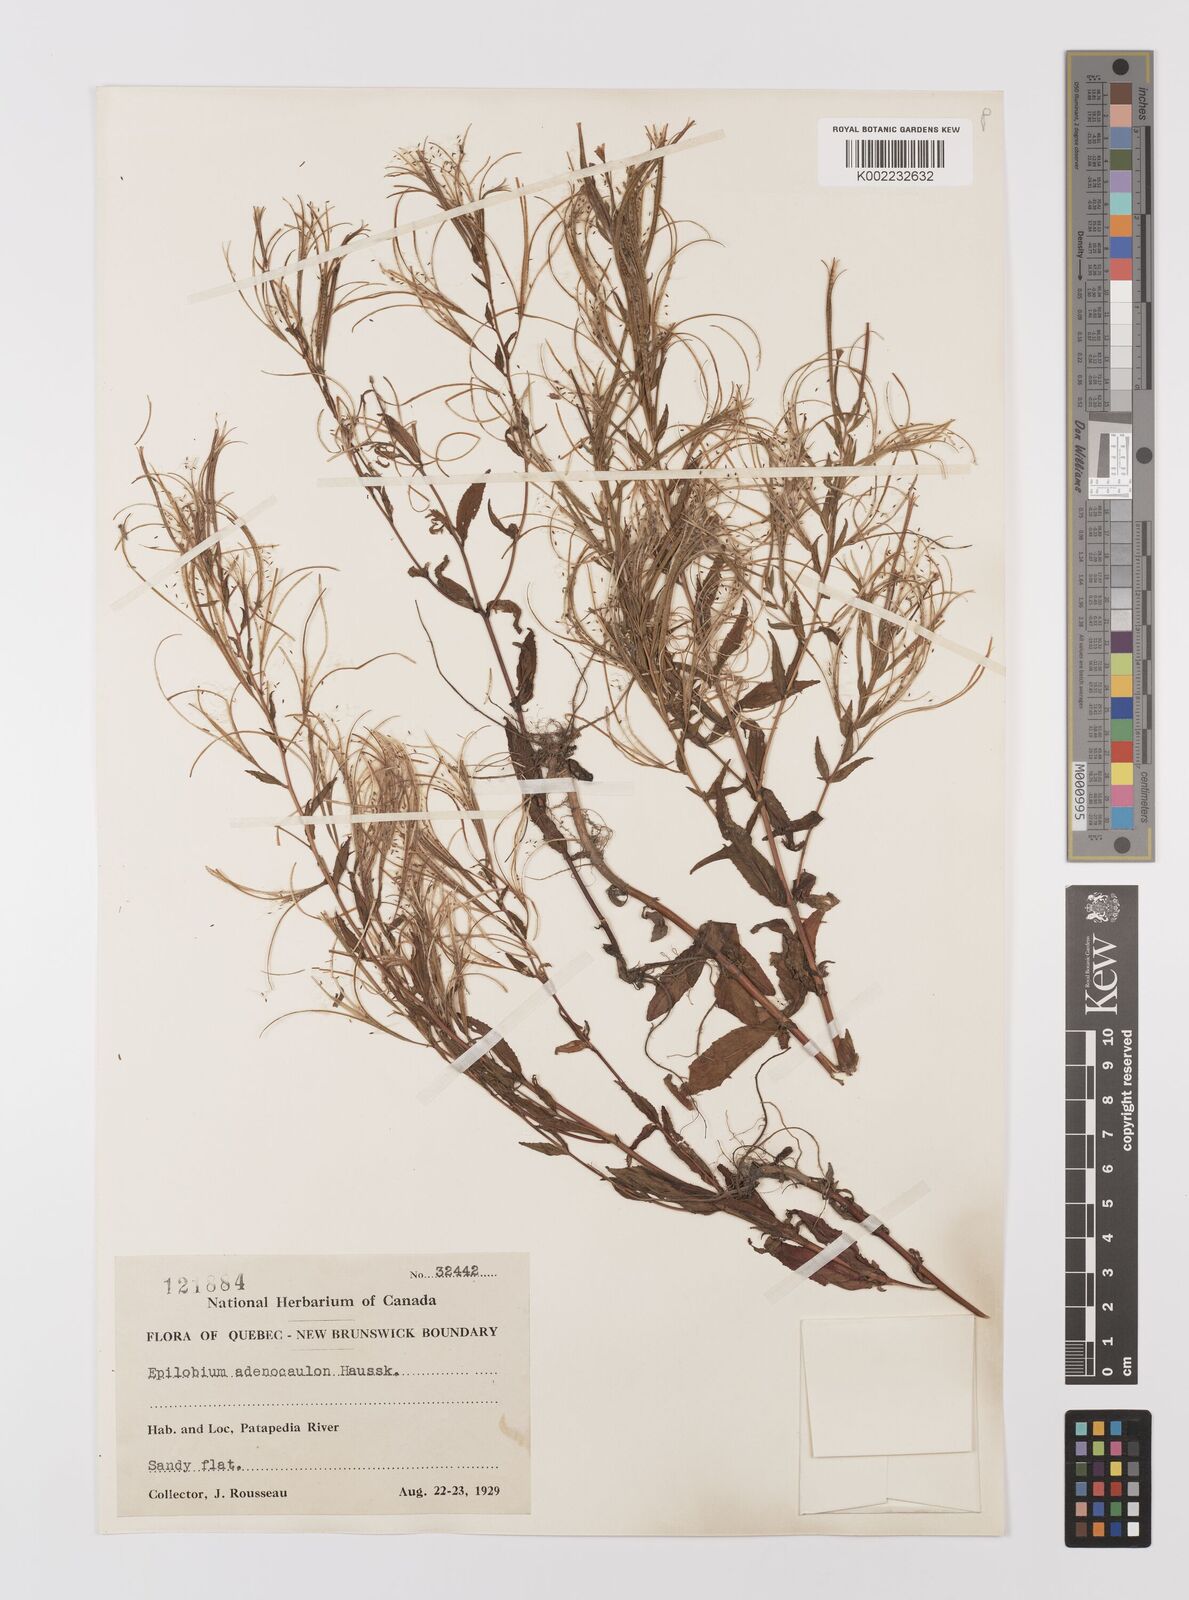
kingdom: Plantae
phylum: Tracheophyta
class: Magnoliopsida
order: Myrtales
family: Onagraceae
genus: Epilobium
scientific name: Epilobium ciliatum
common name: American willowherb
